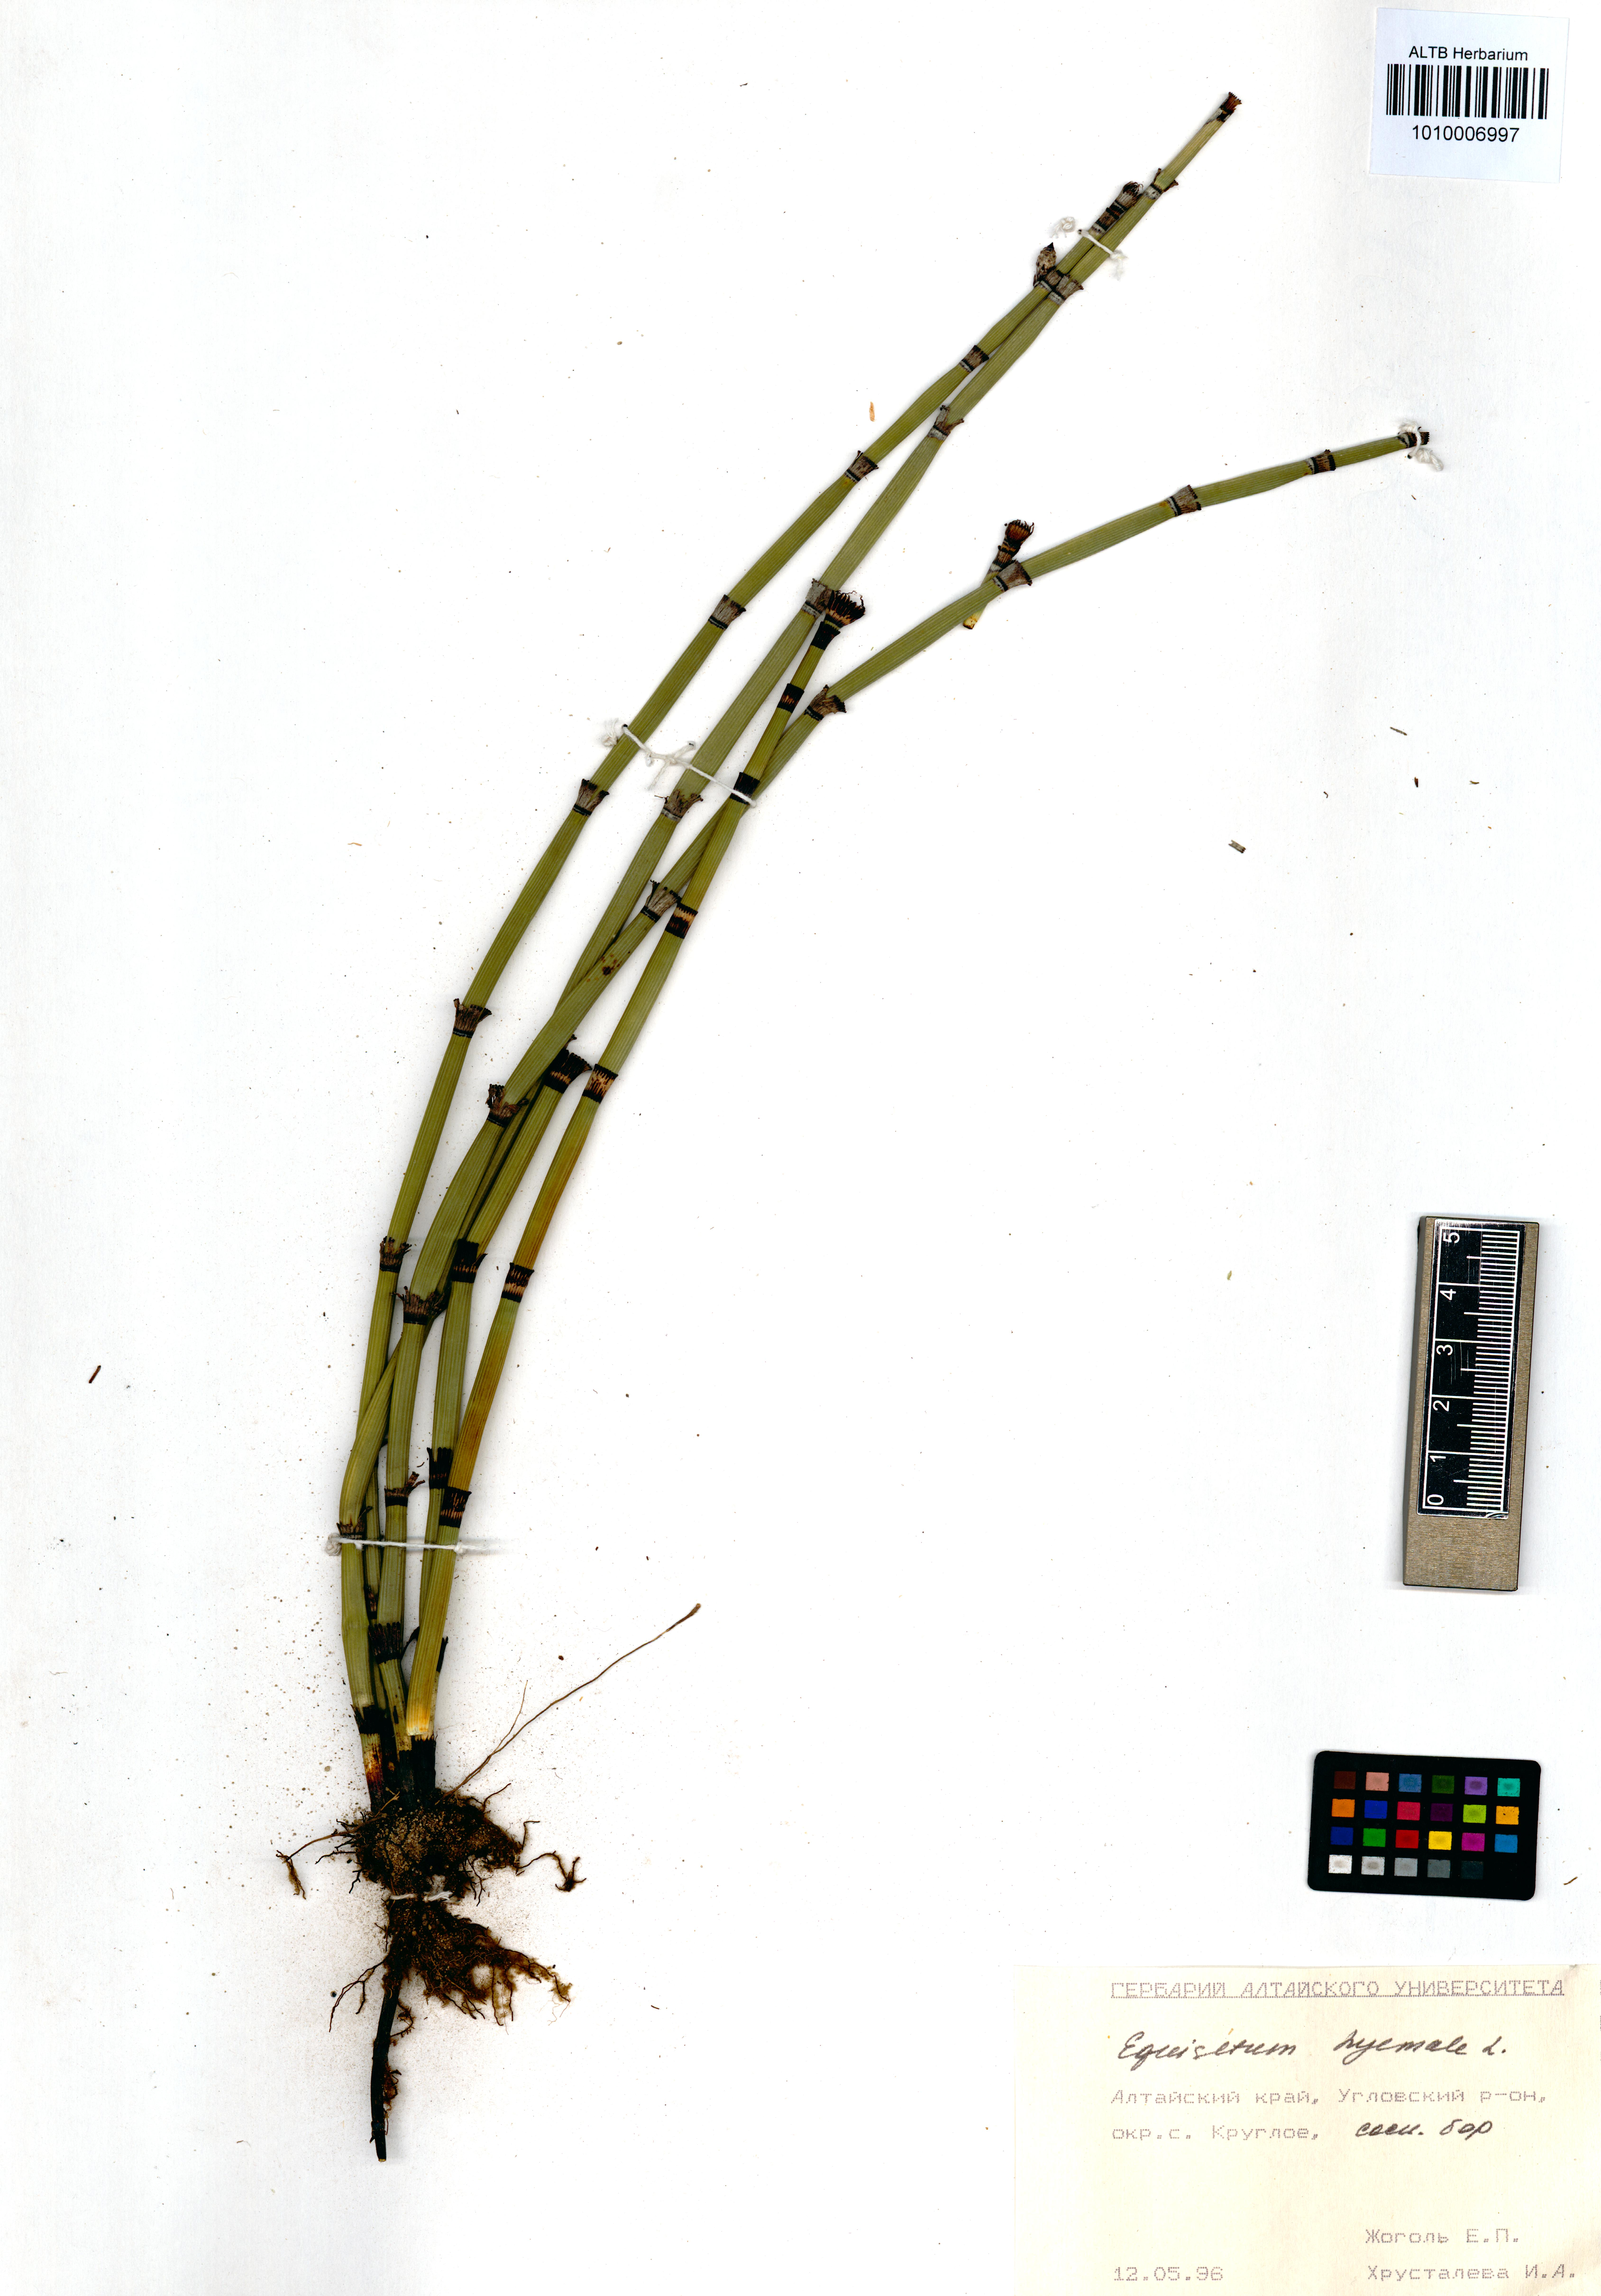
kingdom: Plantae
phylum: Tracheophyta
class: Polypodiopsida
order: Equisetales
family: Equisetaceae
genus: Equisetum
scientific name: Equisetum hyemale
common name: Rough horsetail
